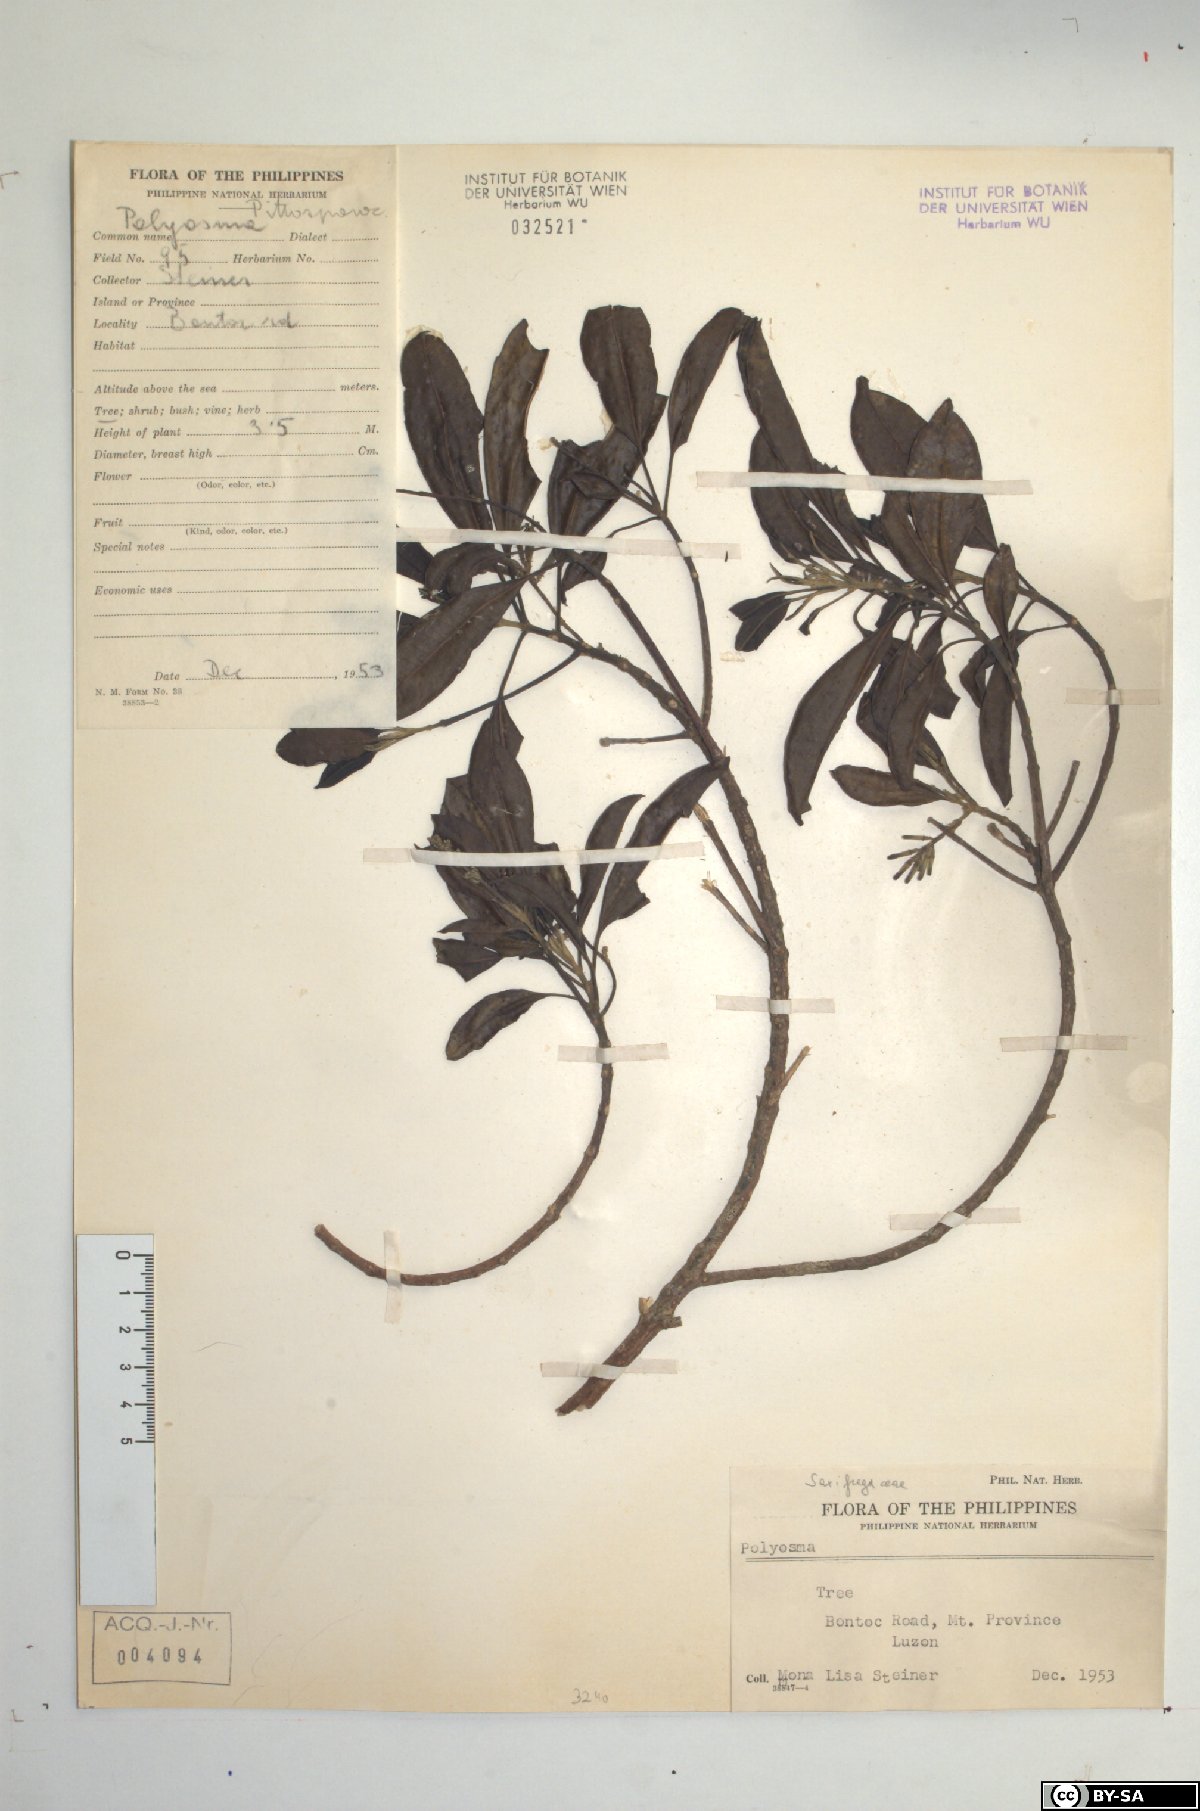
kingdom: Plantae
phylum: Tracheophyta
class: Magnoliopsida
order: Escalloniales
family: Escalloniaceae
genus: Polyosma
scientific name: Polyosma
